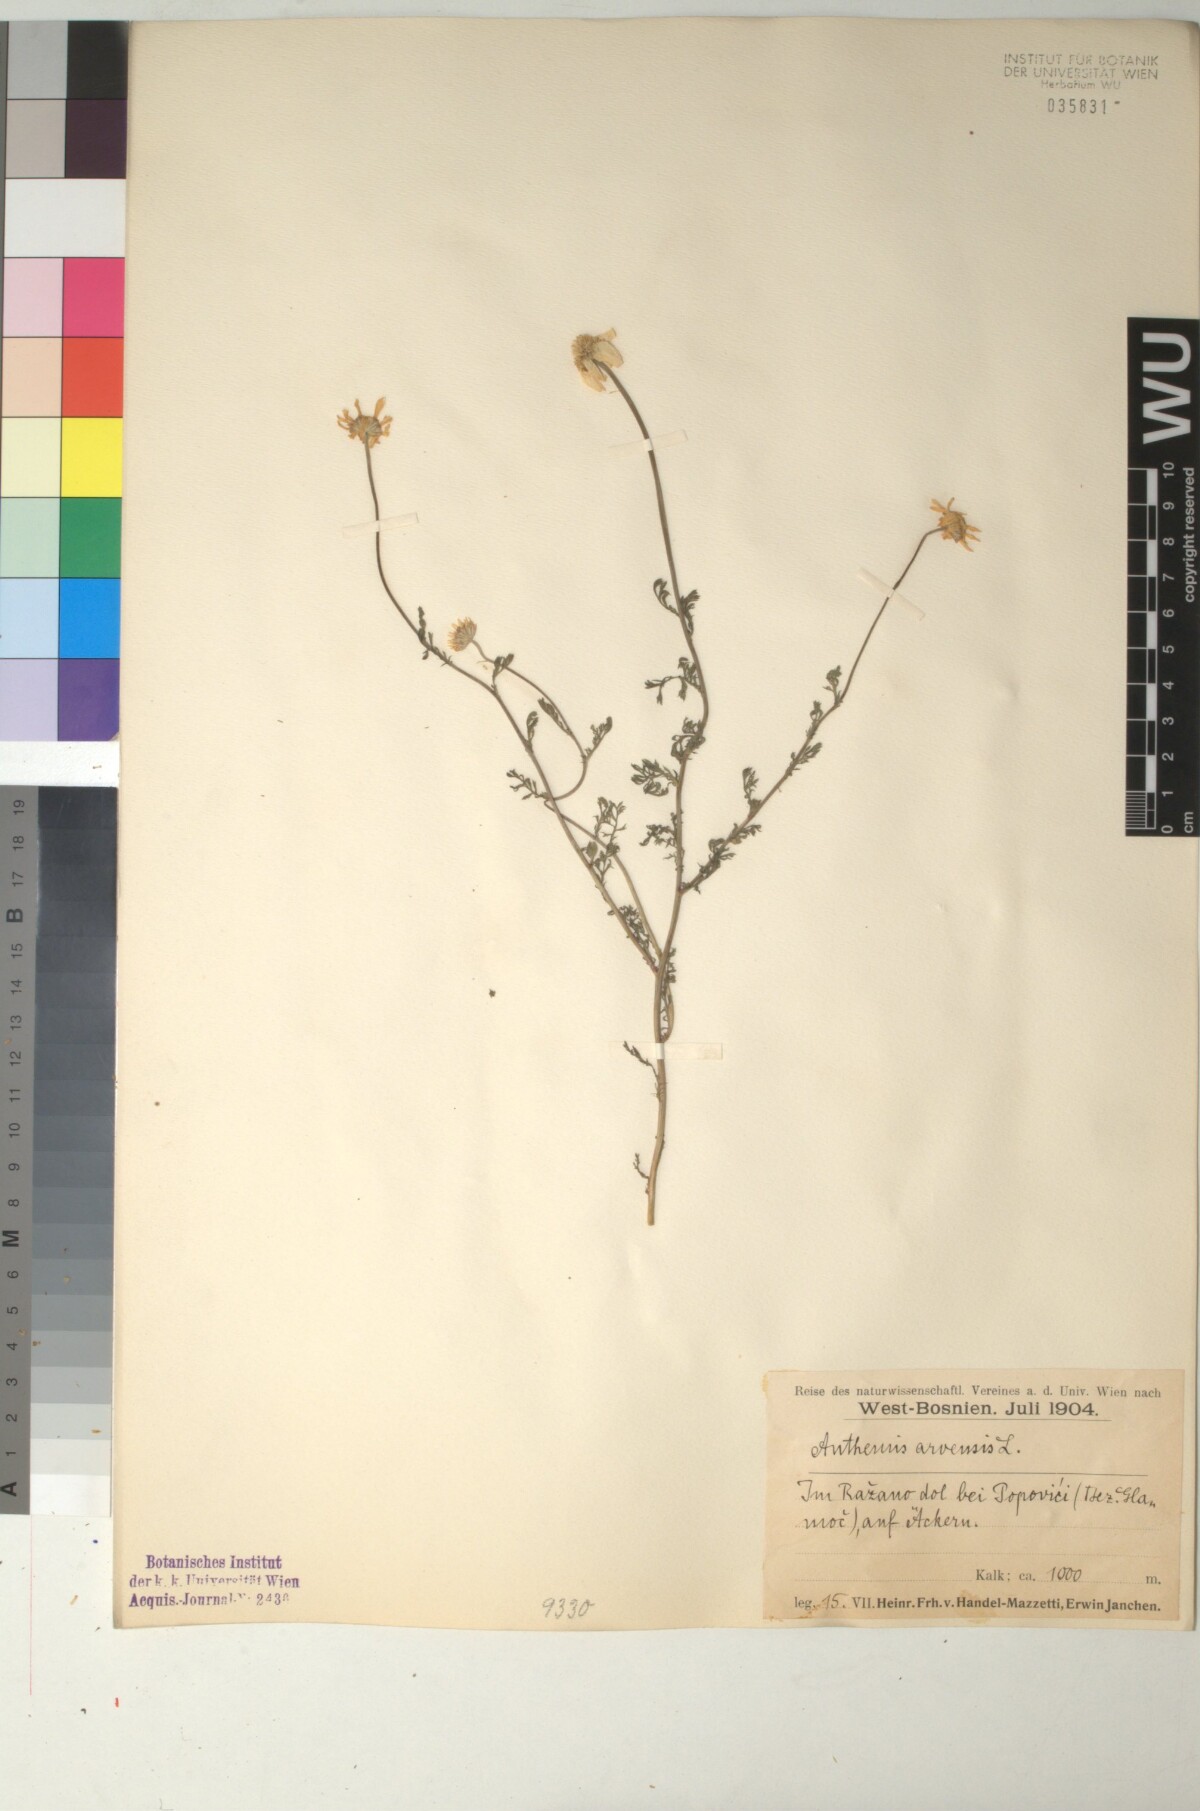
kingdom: Plantae
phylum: Tracheophyta
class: Magnoliopsida
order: Asterales
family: Asteraceae
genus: Anthemis
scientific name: Anthemis arvensis
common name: Corn chamomile
